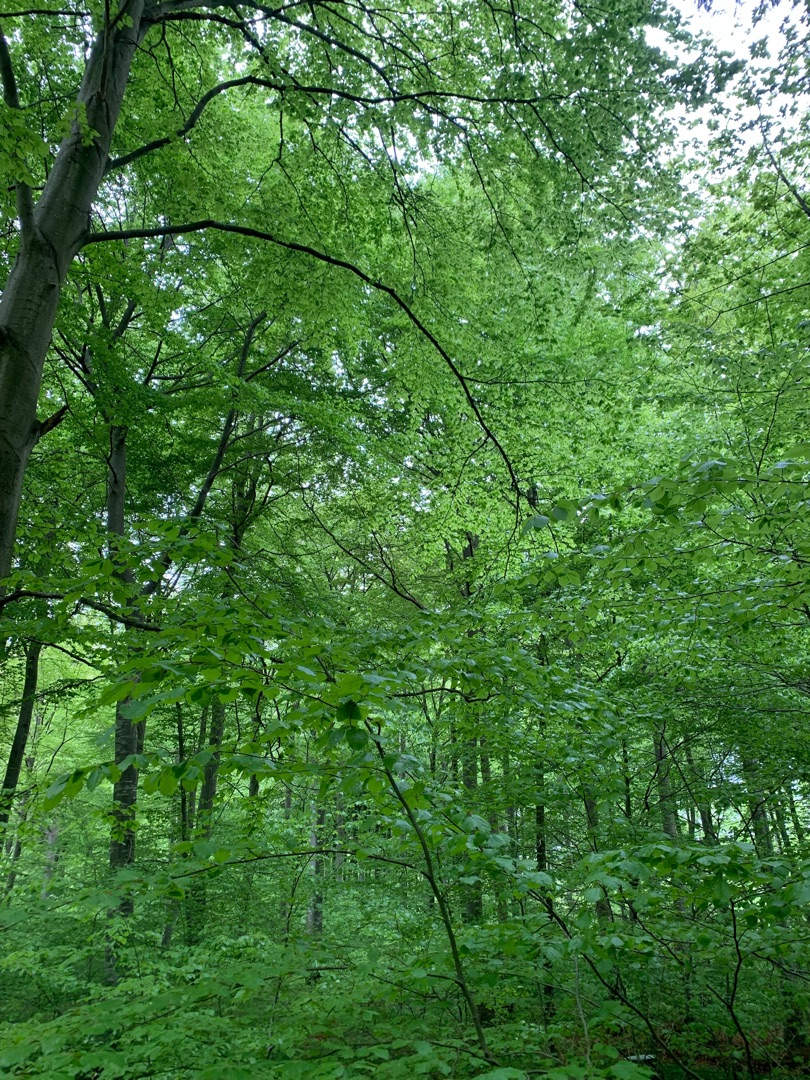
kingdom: Plantae
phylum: Tracheophyta
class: Magnoliopsida
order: Fagales
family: Fagaceae
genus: Fagus
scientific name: Fagus sylvatica
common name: Bøg
